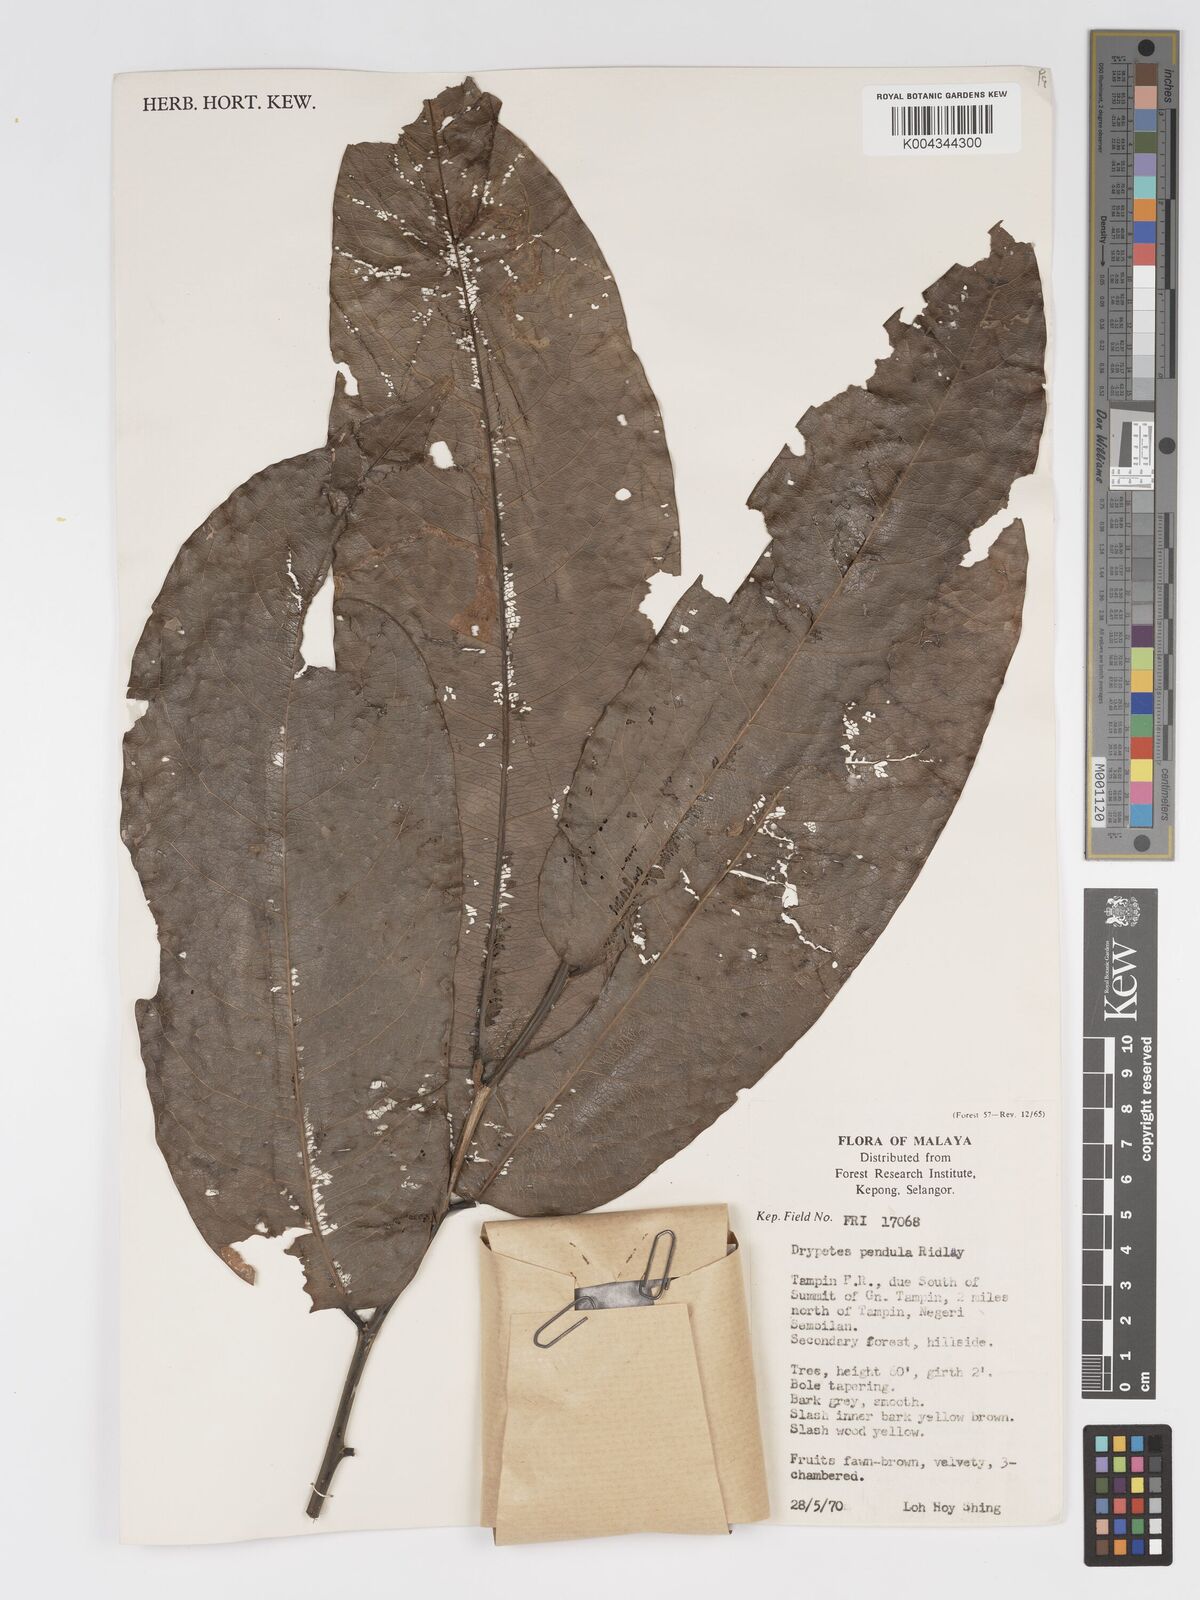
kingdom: Plantae
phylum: Tracheophyta
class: Magnoliopsida
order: Malpighiales
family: Putranjivaceae
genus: Drypetes
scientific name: Drypetes pendula
